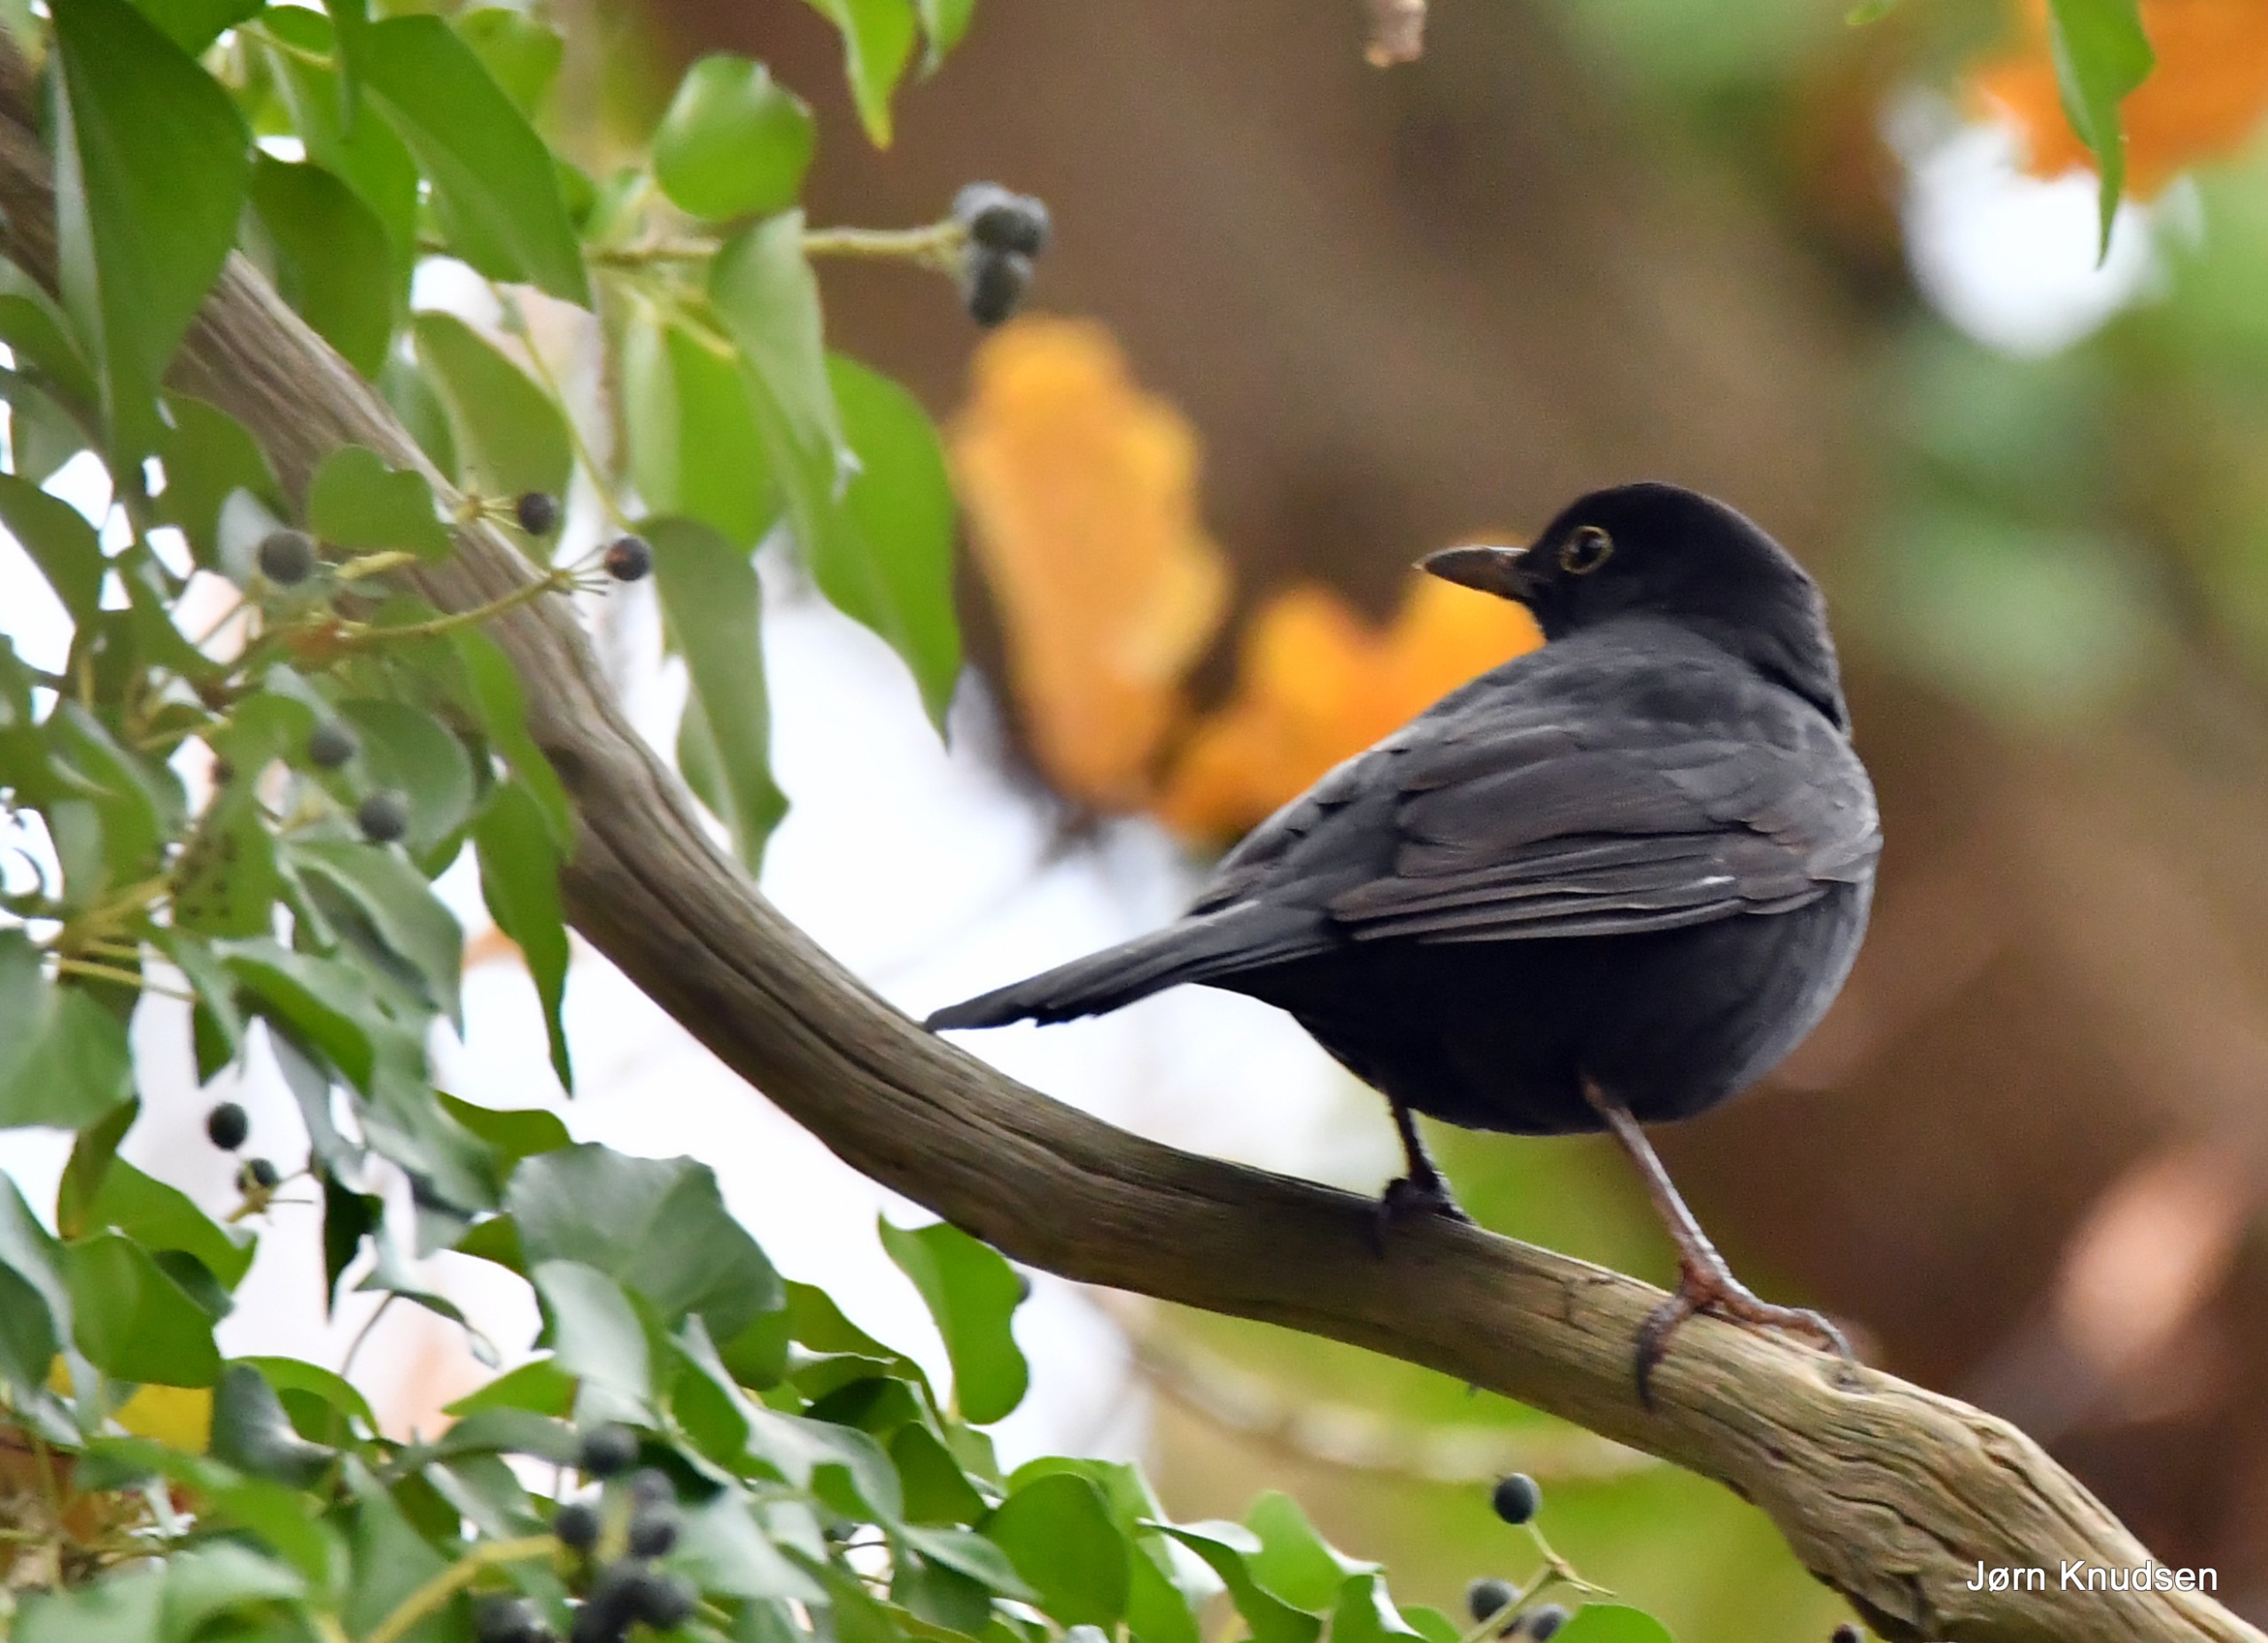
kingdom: Animalia
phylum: Chordata
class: Aves
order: Passeriformes
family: Turdidae
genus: Turdus
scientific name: Turdus merula
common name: Solsort
